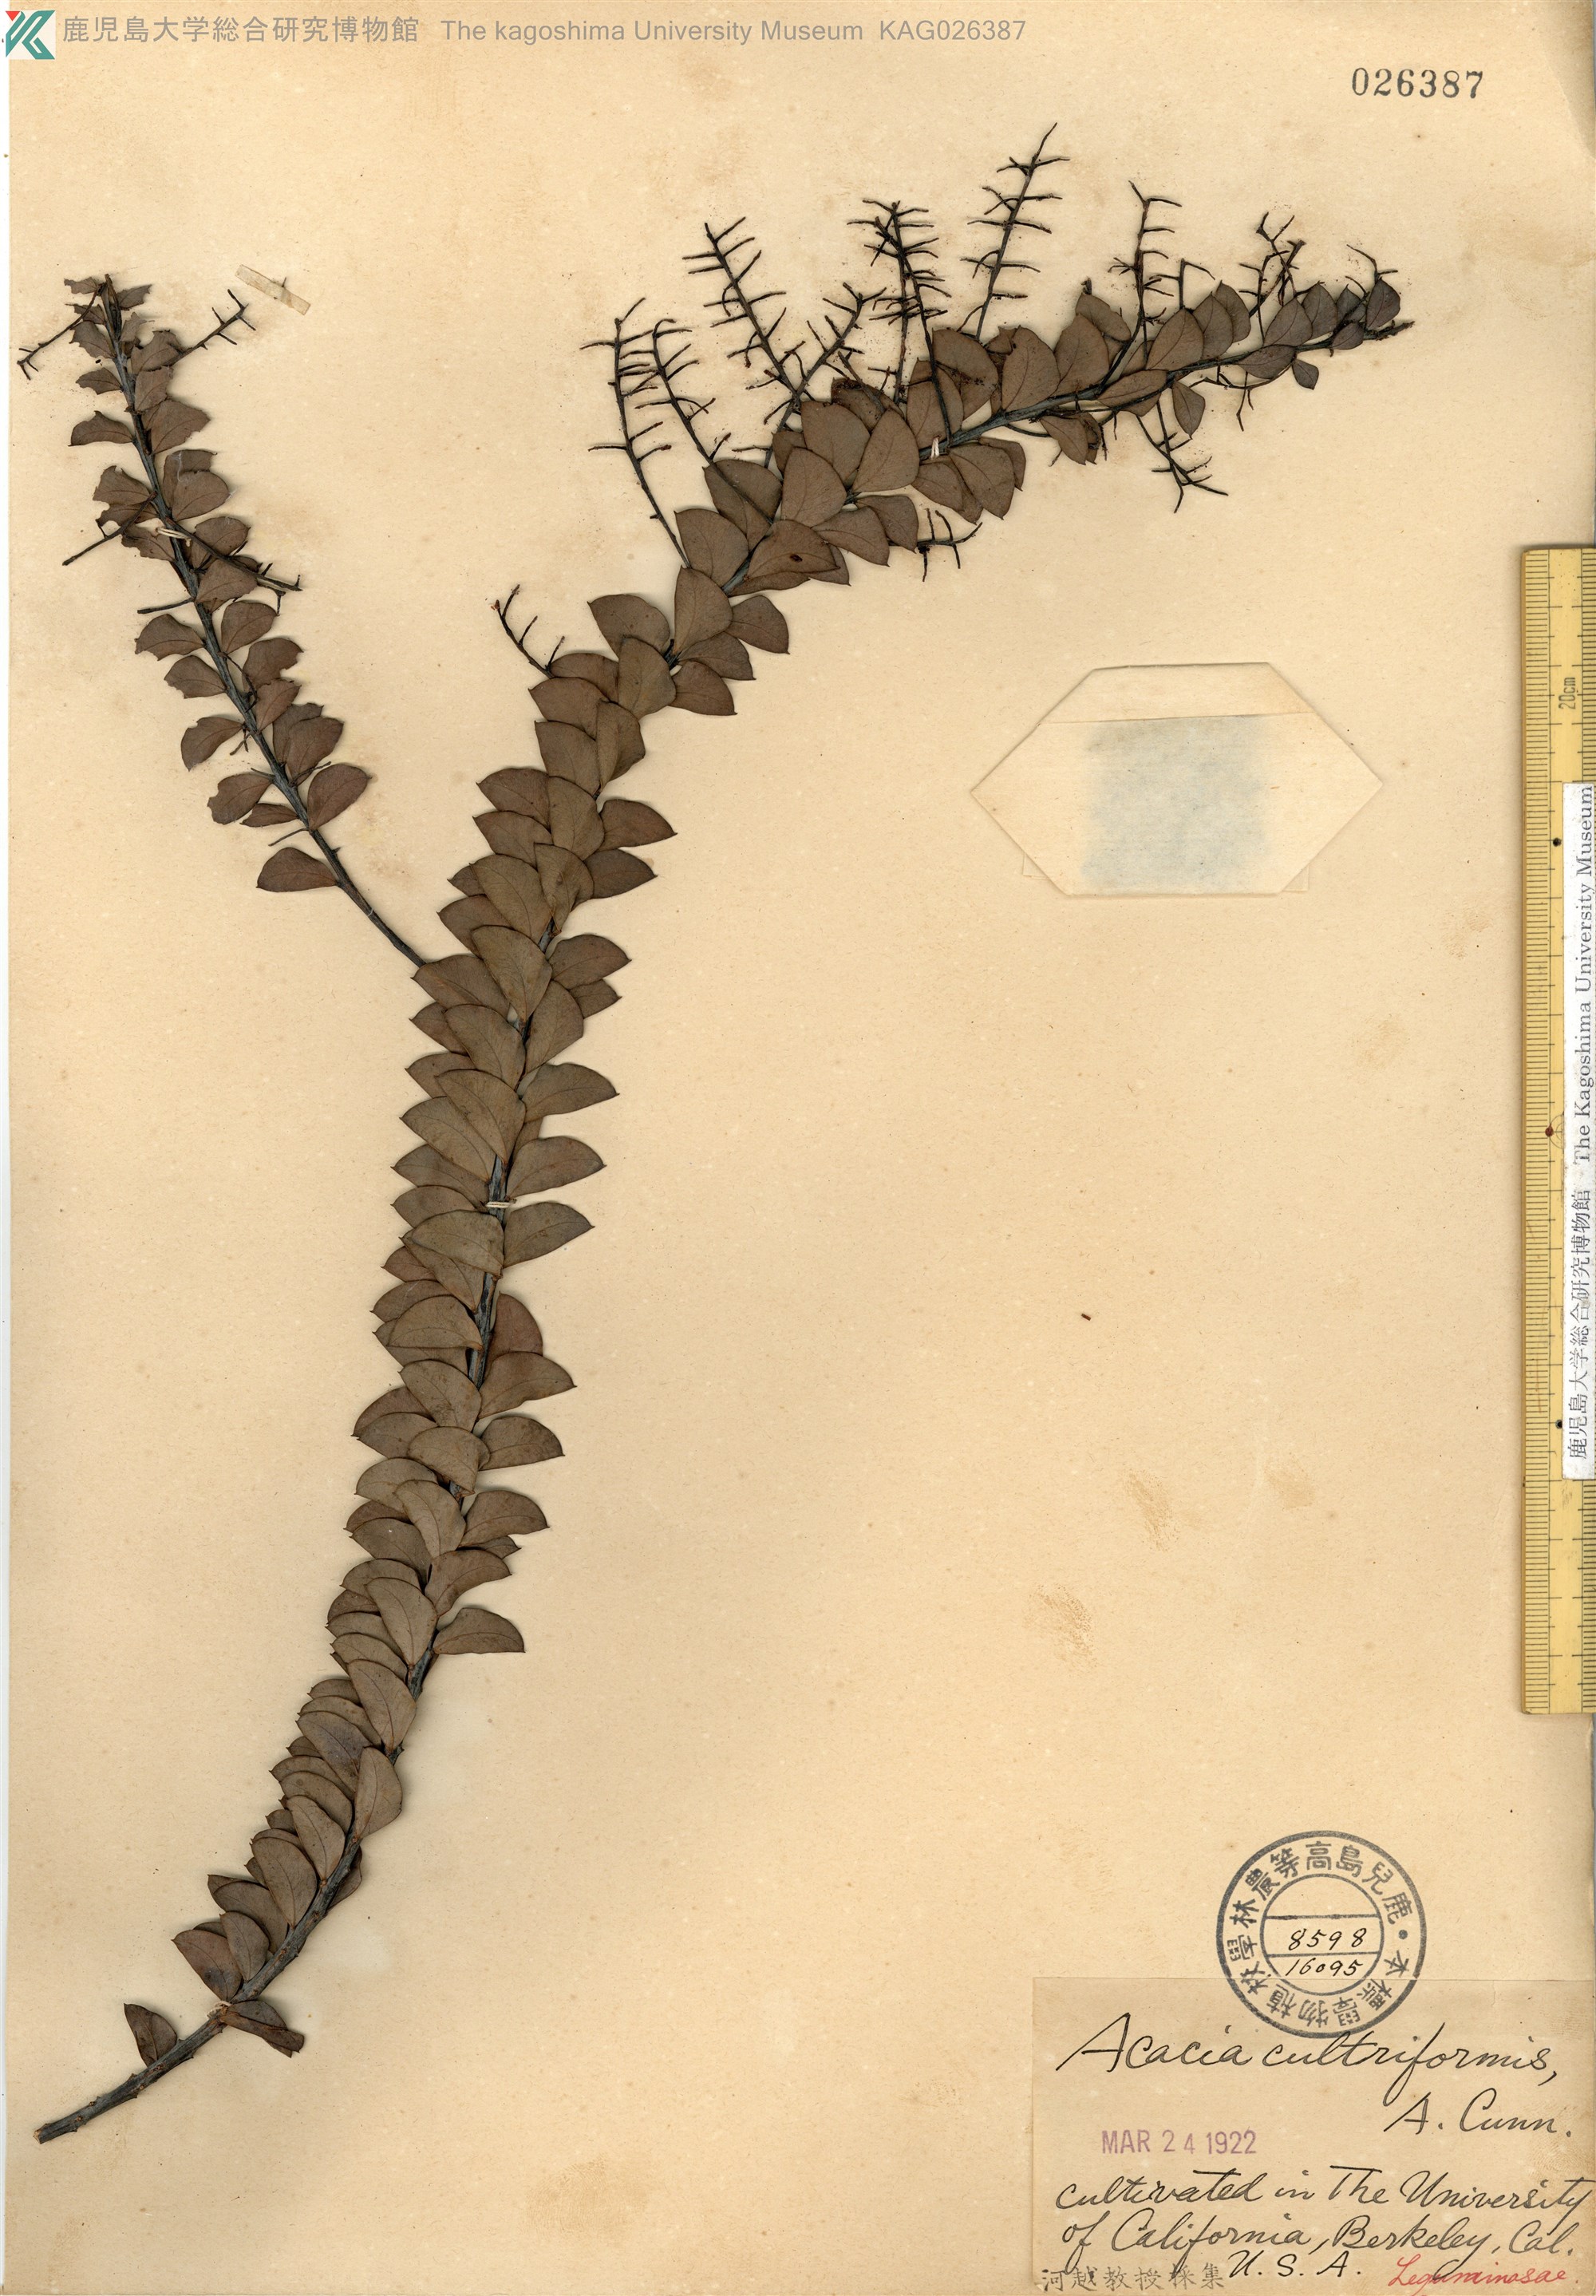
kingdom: Plantae
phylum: Tracheophyta
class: Magnoliopsida
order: Fabales
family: Fabaceae
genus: Acacia
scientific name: Acacia cultriformis
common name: Knife acacia
